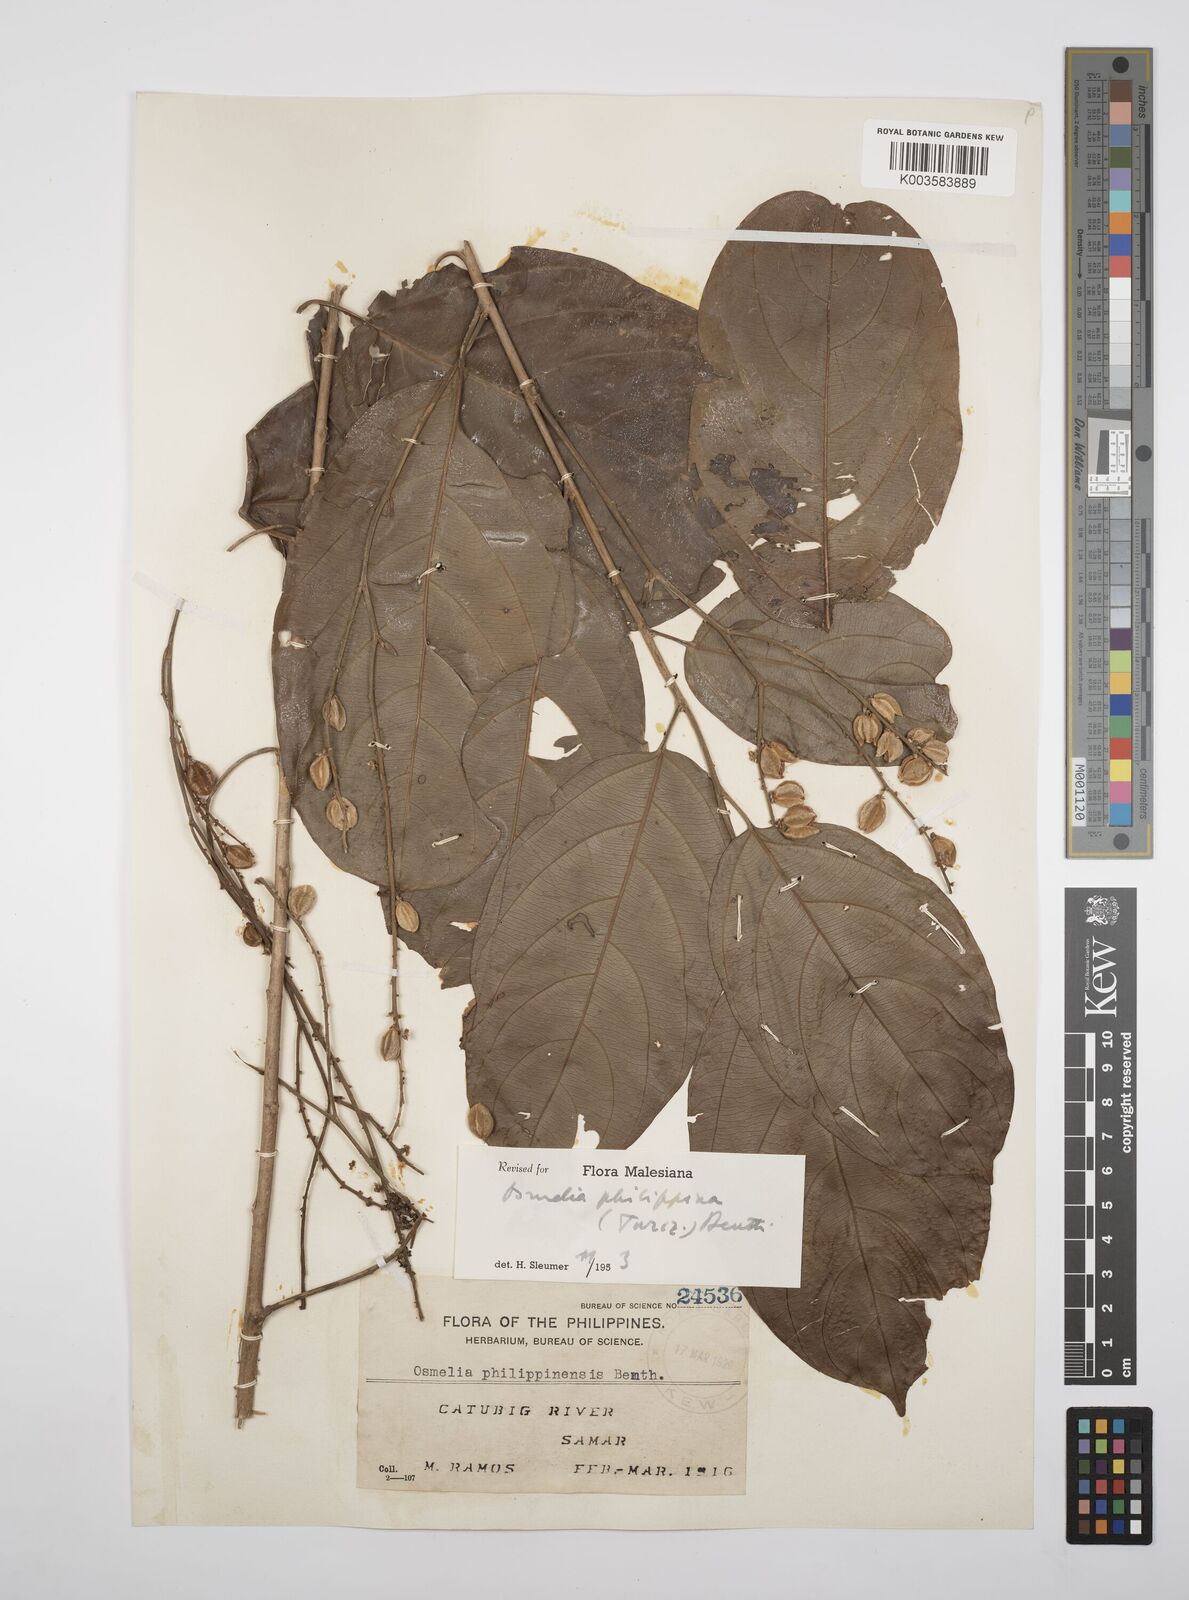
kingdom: Plantae
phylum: Tracheophyta
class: Magnoliopsida
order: Malpighiales
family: Salicaceae
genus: Osmelia
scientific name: Osmelia philippina
